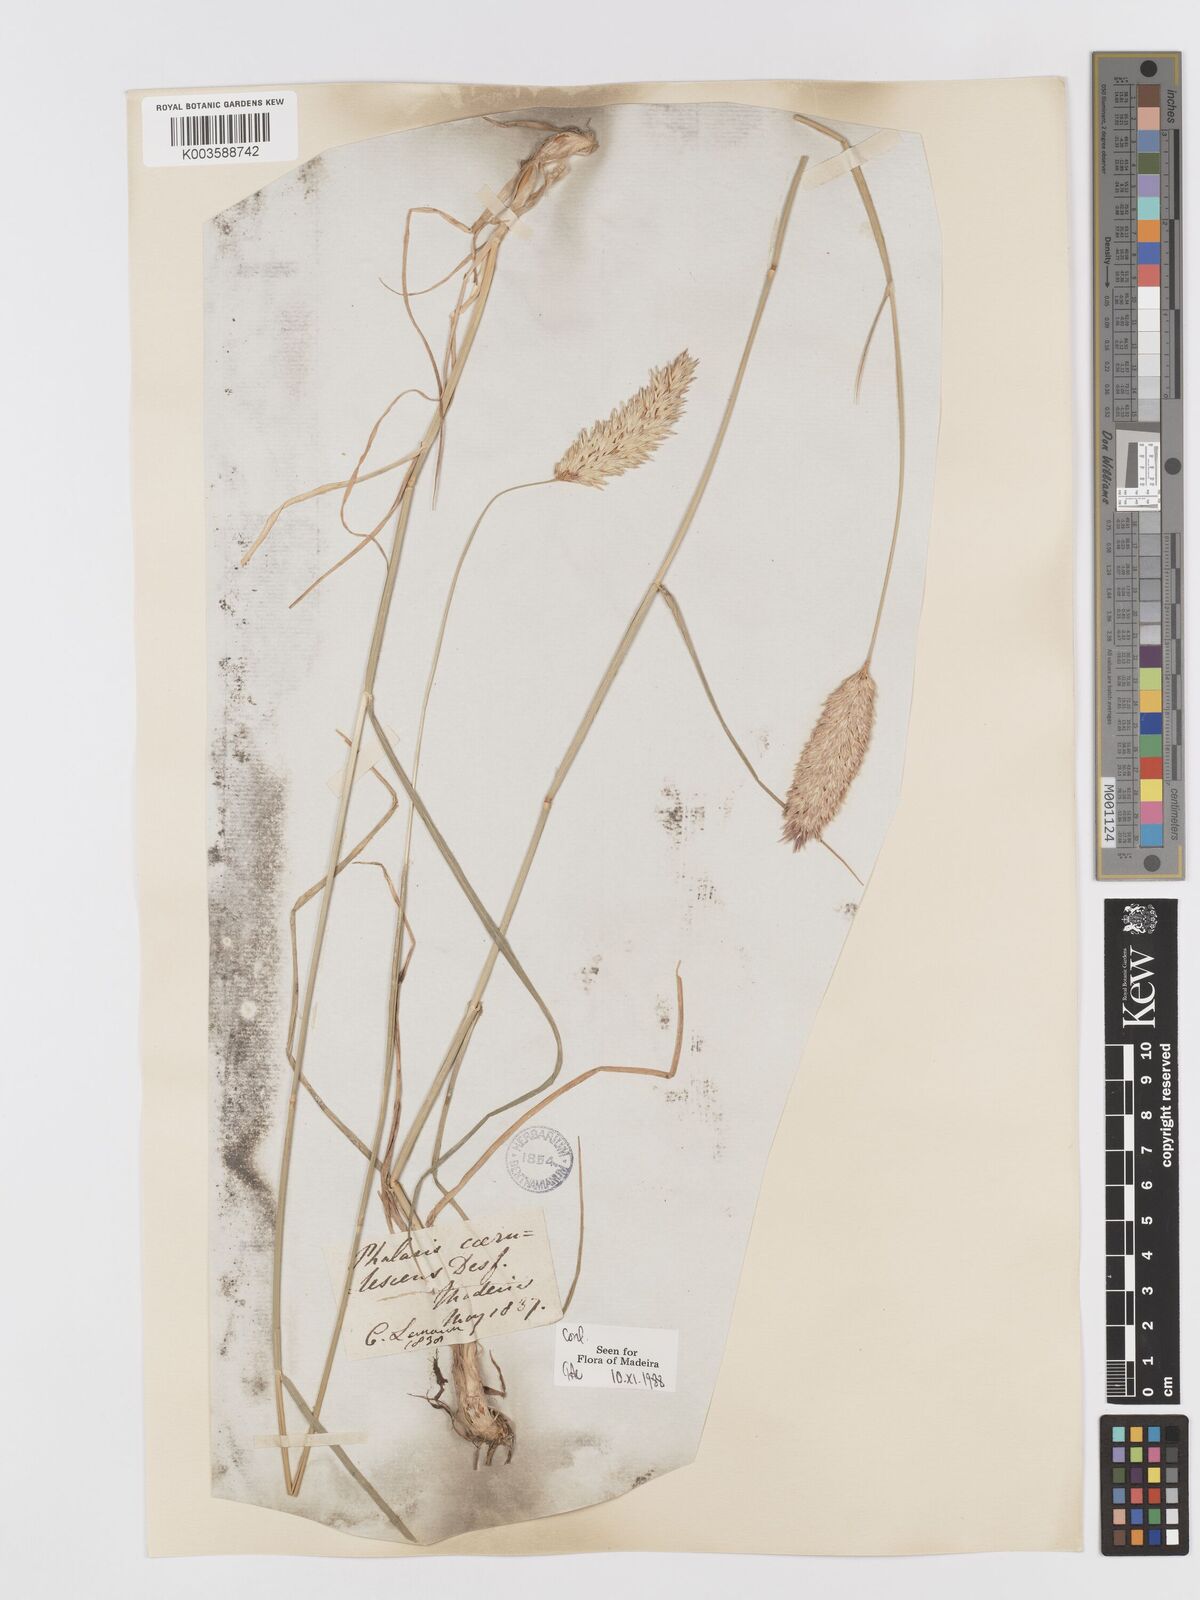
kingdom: Plantae
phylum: Tracheophyta
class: Liliopsida
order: Poales
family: Poaceae
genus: Phalaris
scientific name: Phalaris coerulescens
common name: Sunolgrass
